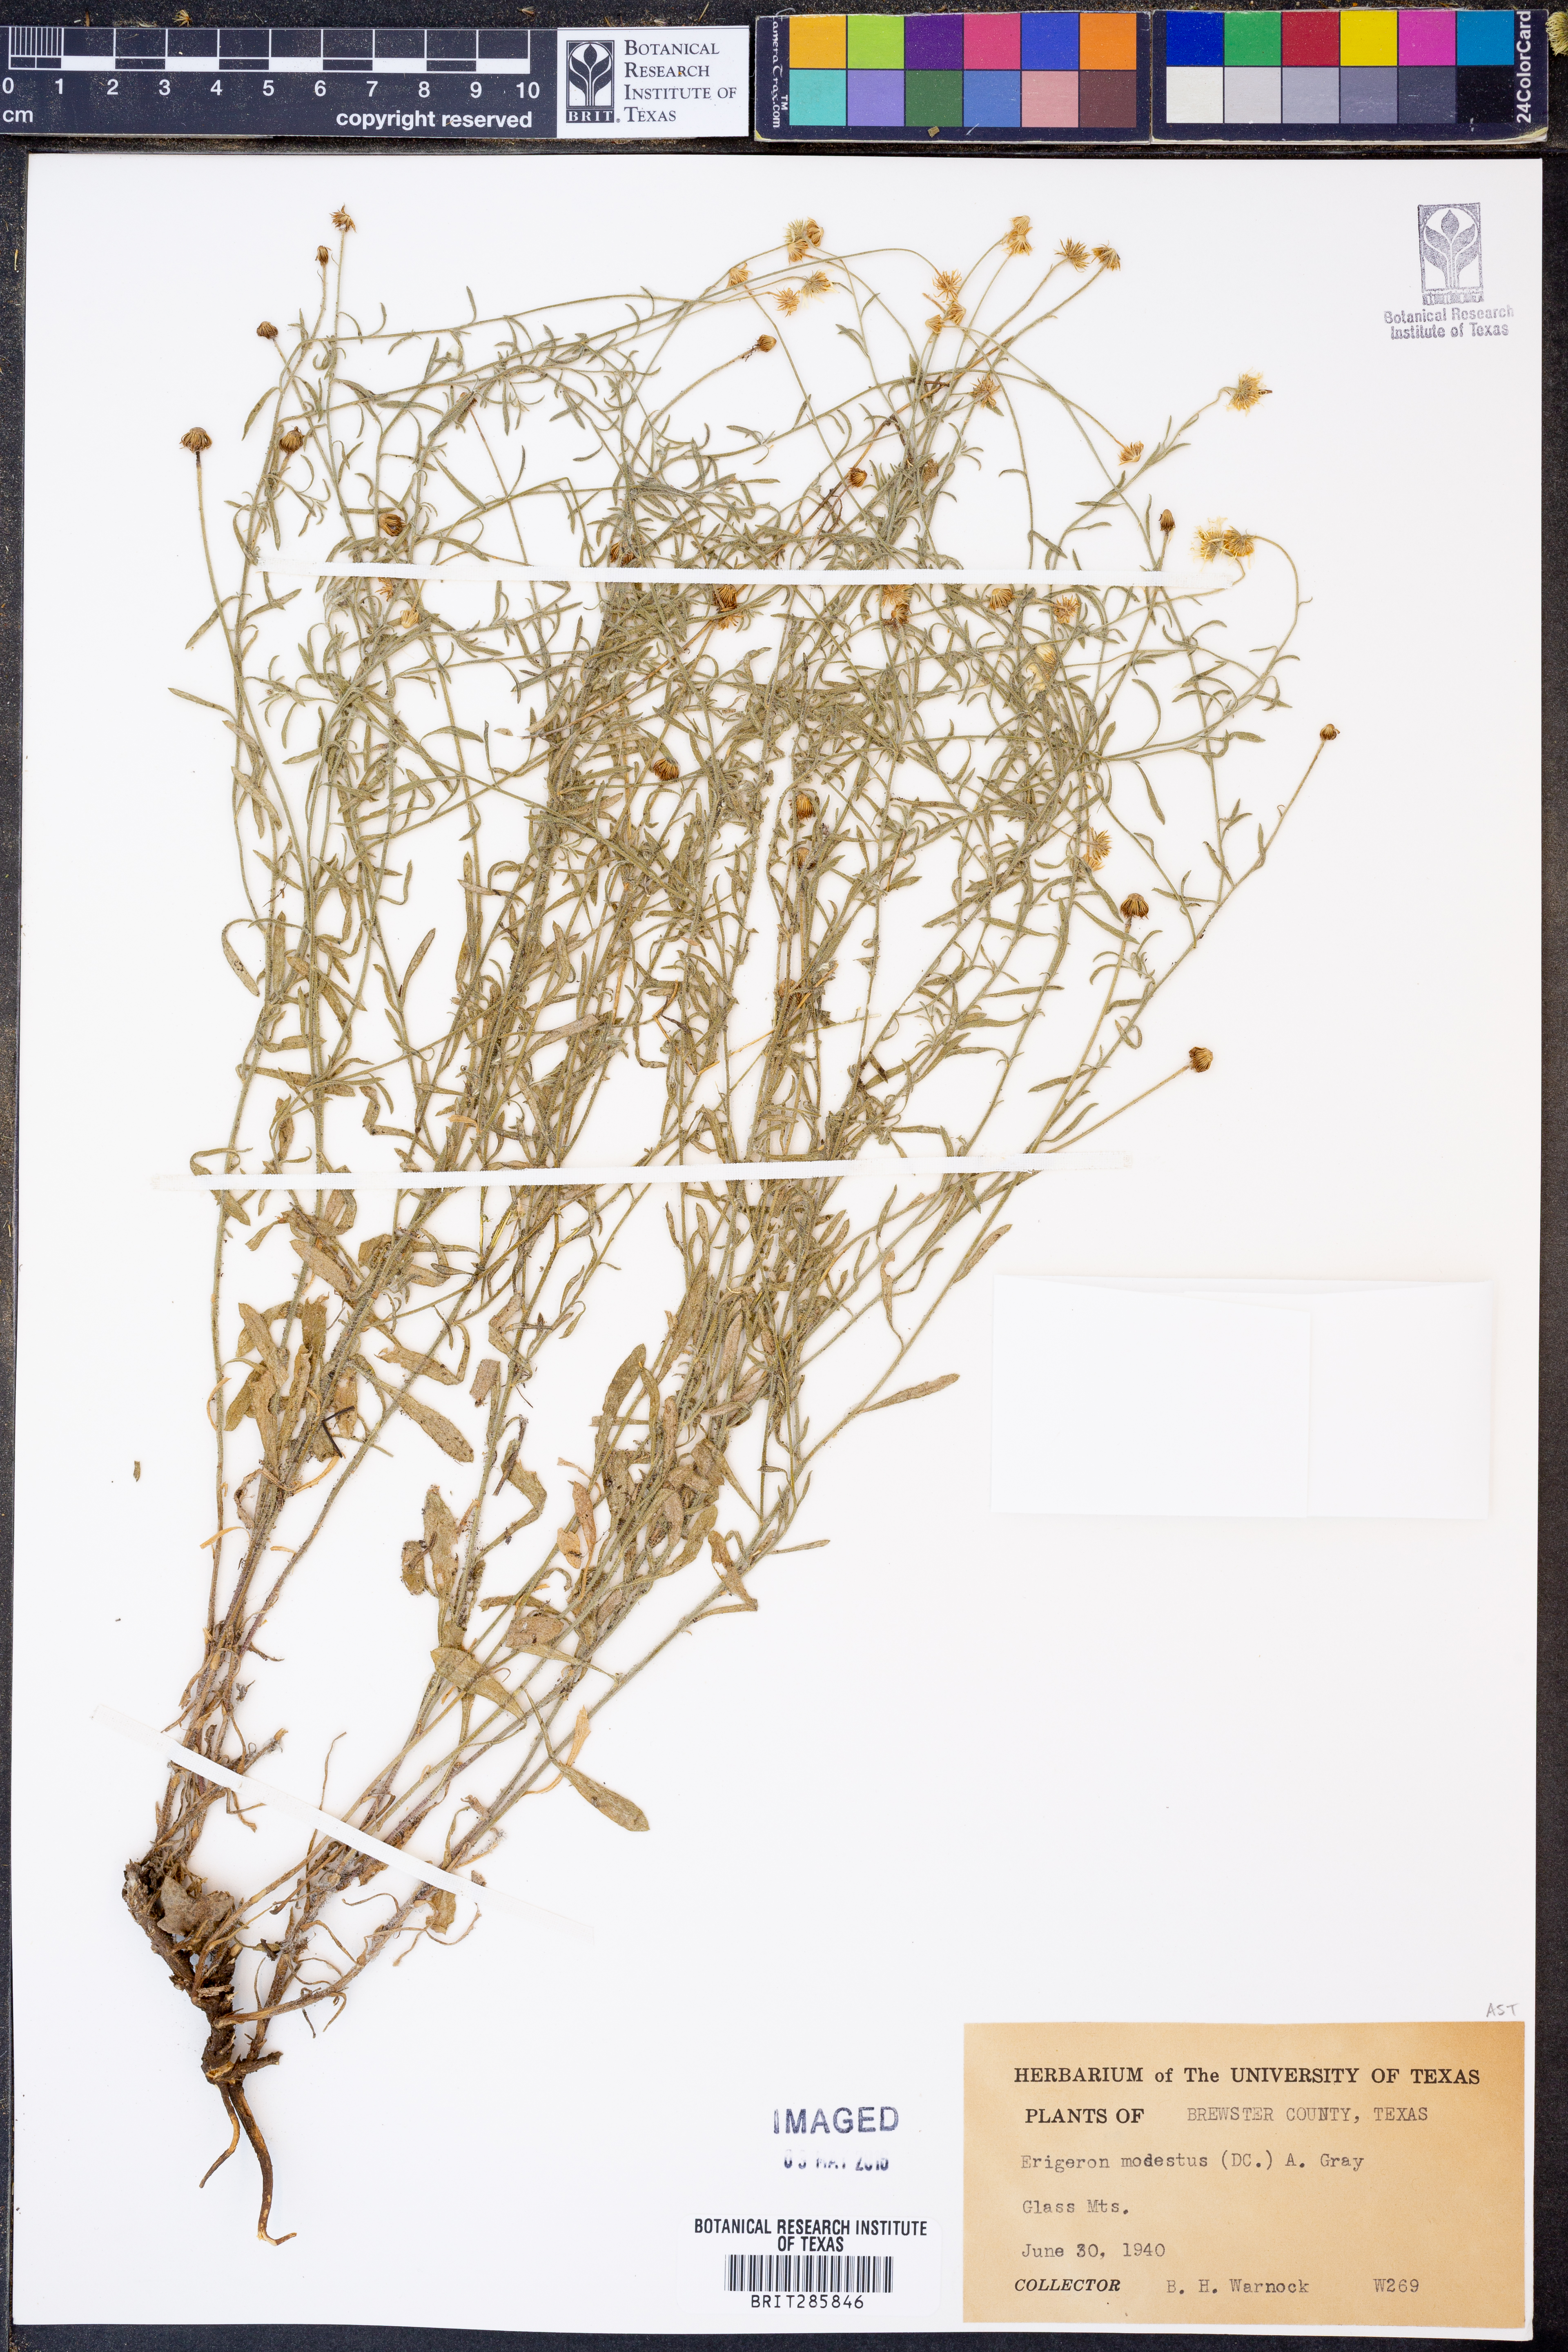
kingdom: Plantae
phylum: Tracheophyta
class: Magnoliopsida
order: Asterales
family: Asteraceae
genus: Erigeron
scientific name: Erigeron modestus
